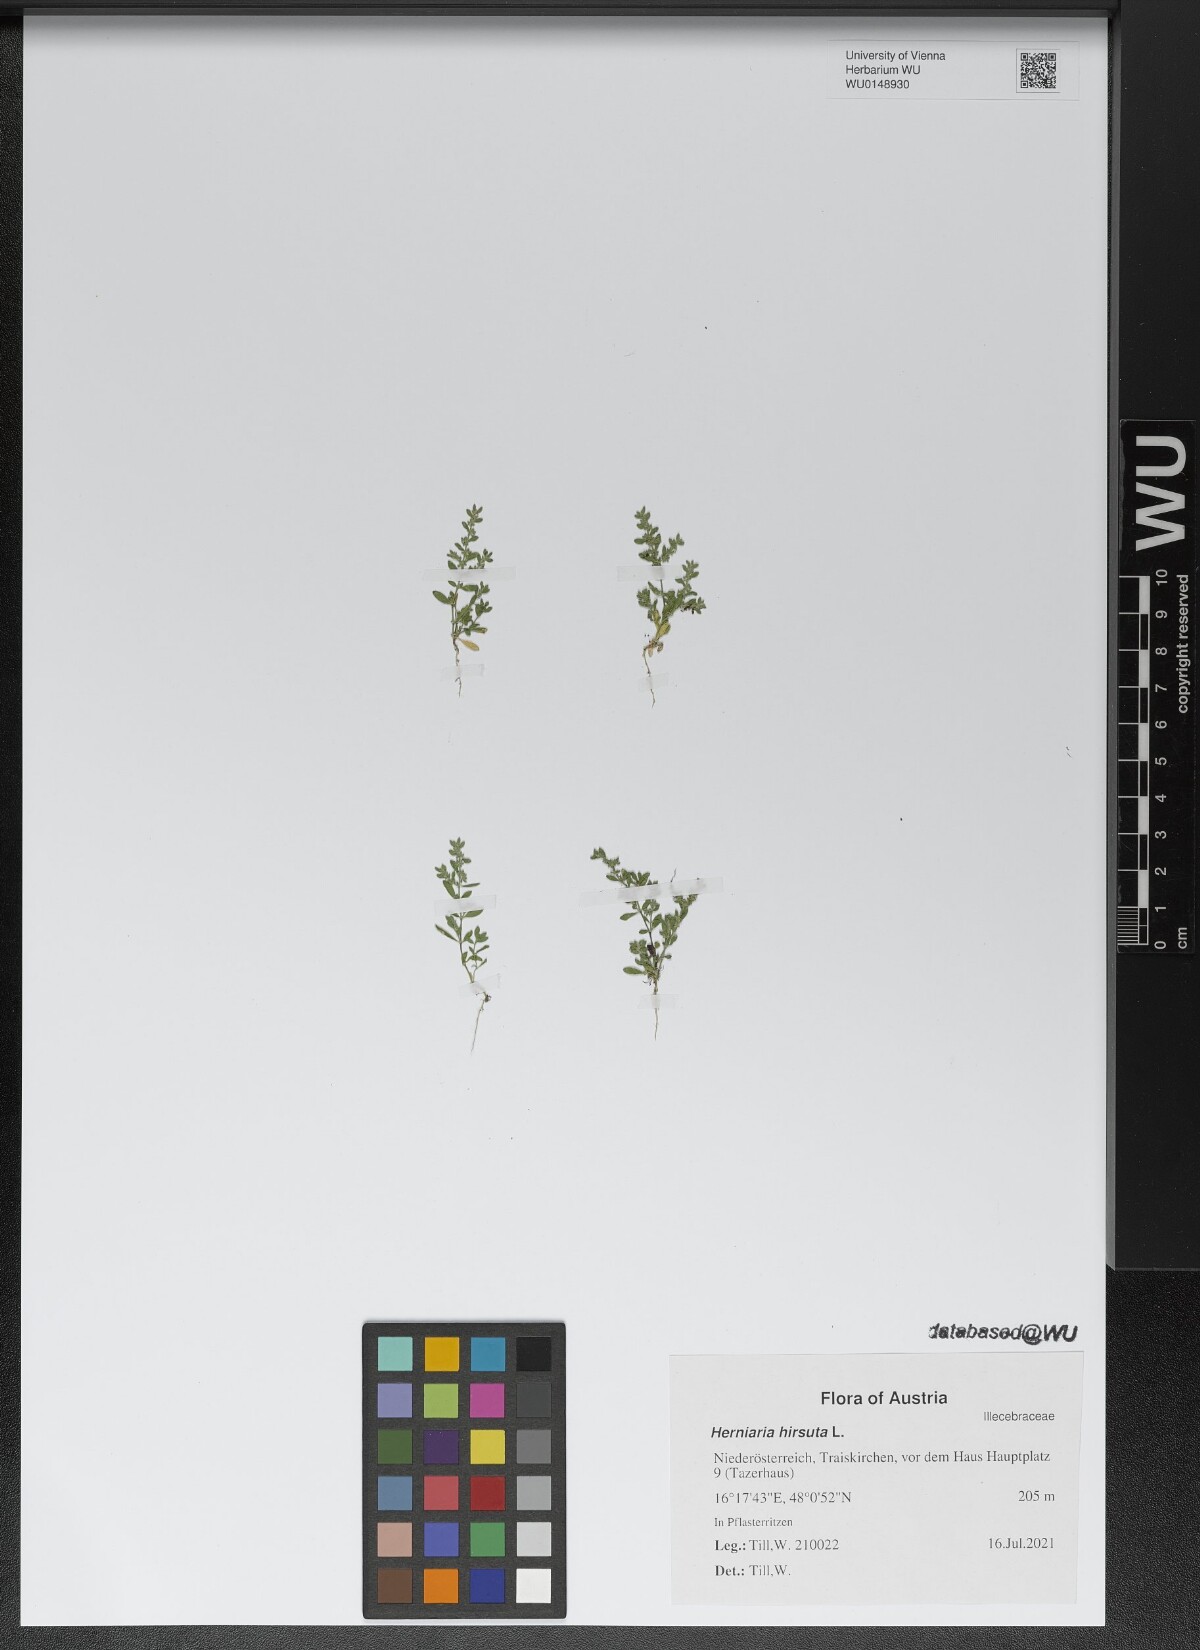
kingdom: Plantae
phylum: Tracheophyta
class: Magnoliopsida
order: Caryophyllales
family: Caryophyllaceae
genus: Herniaria
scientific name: Herniaria hirsuta
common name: Hairy rupturewort
